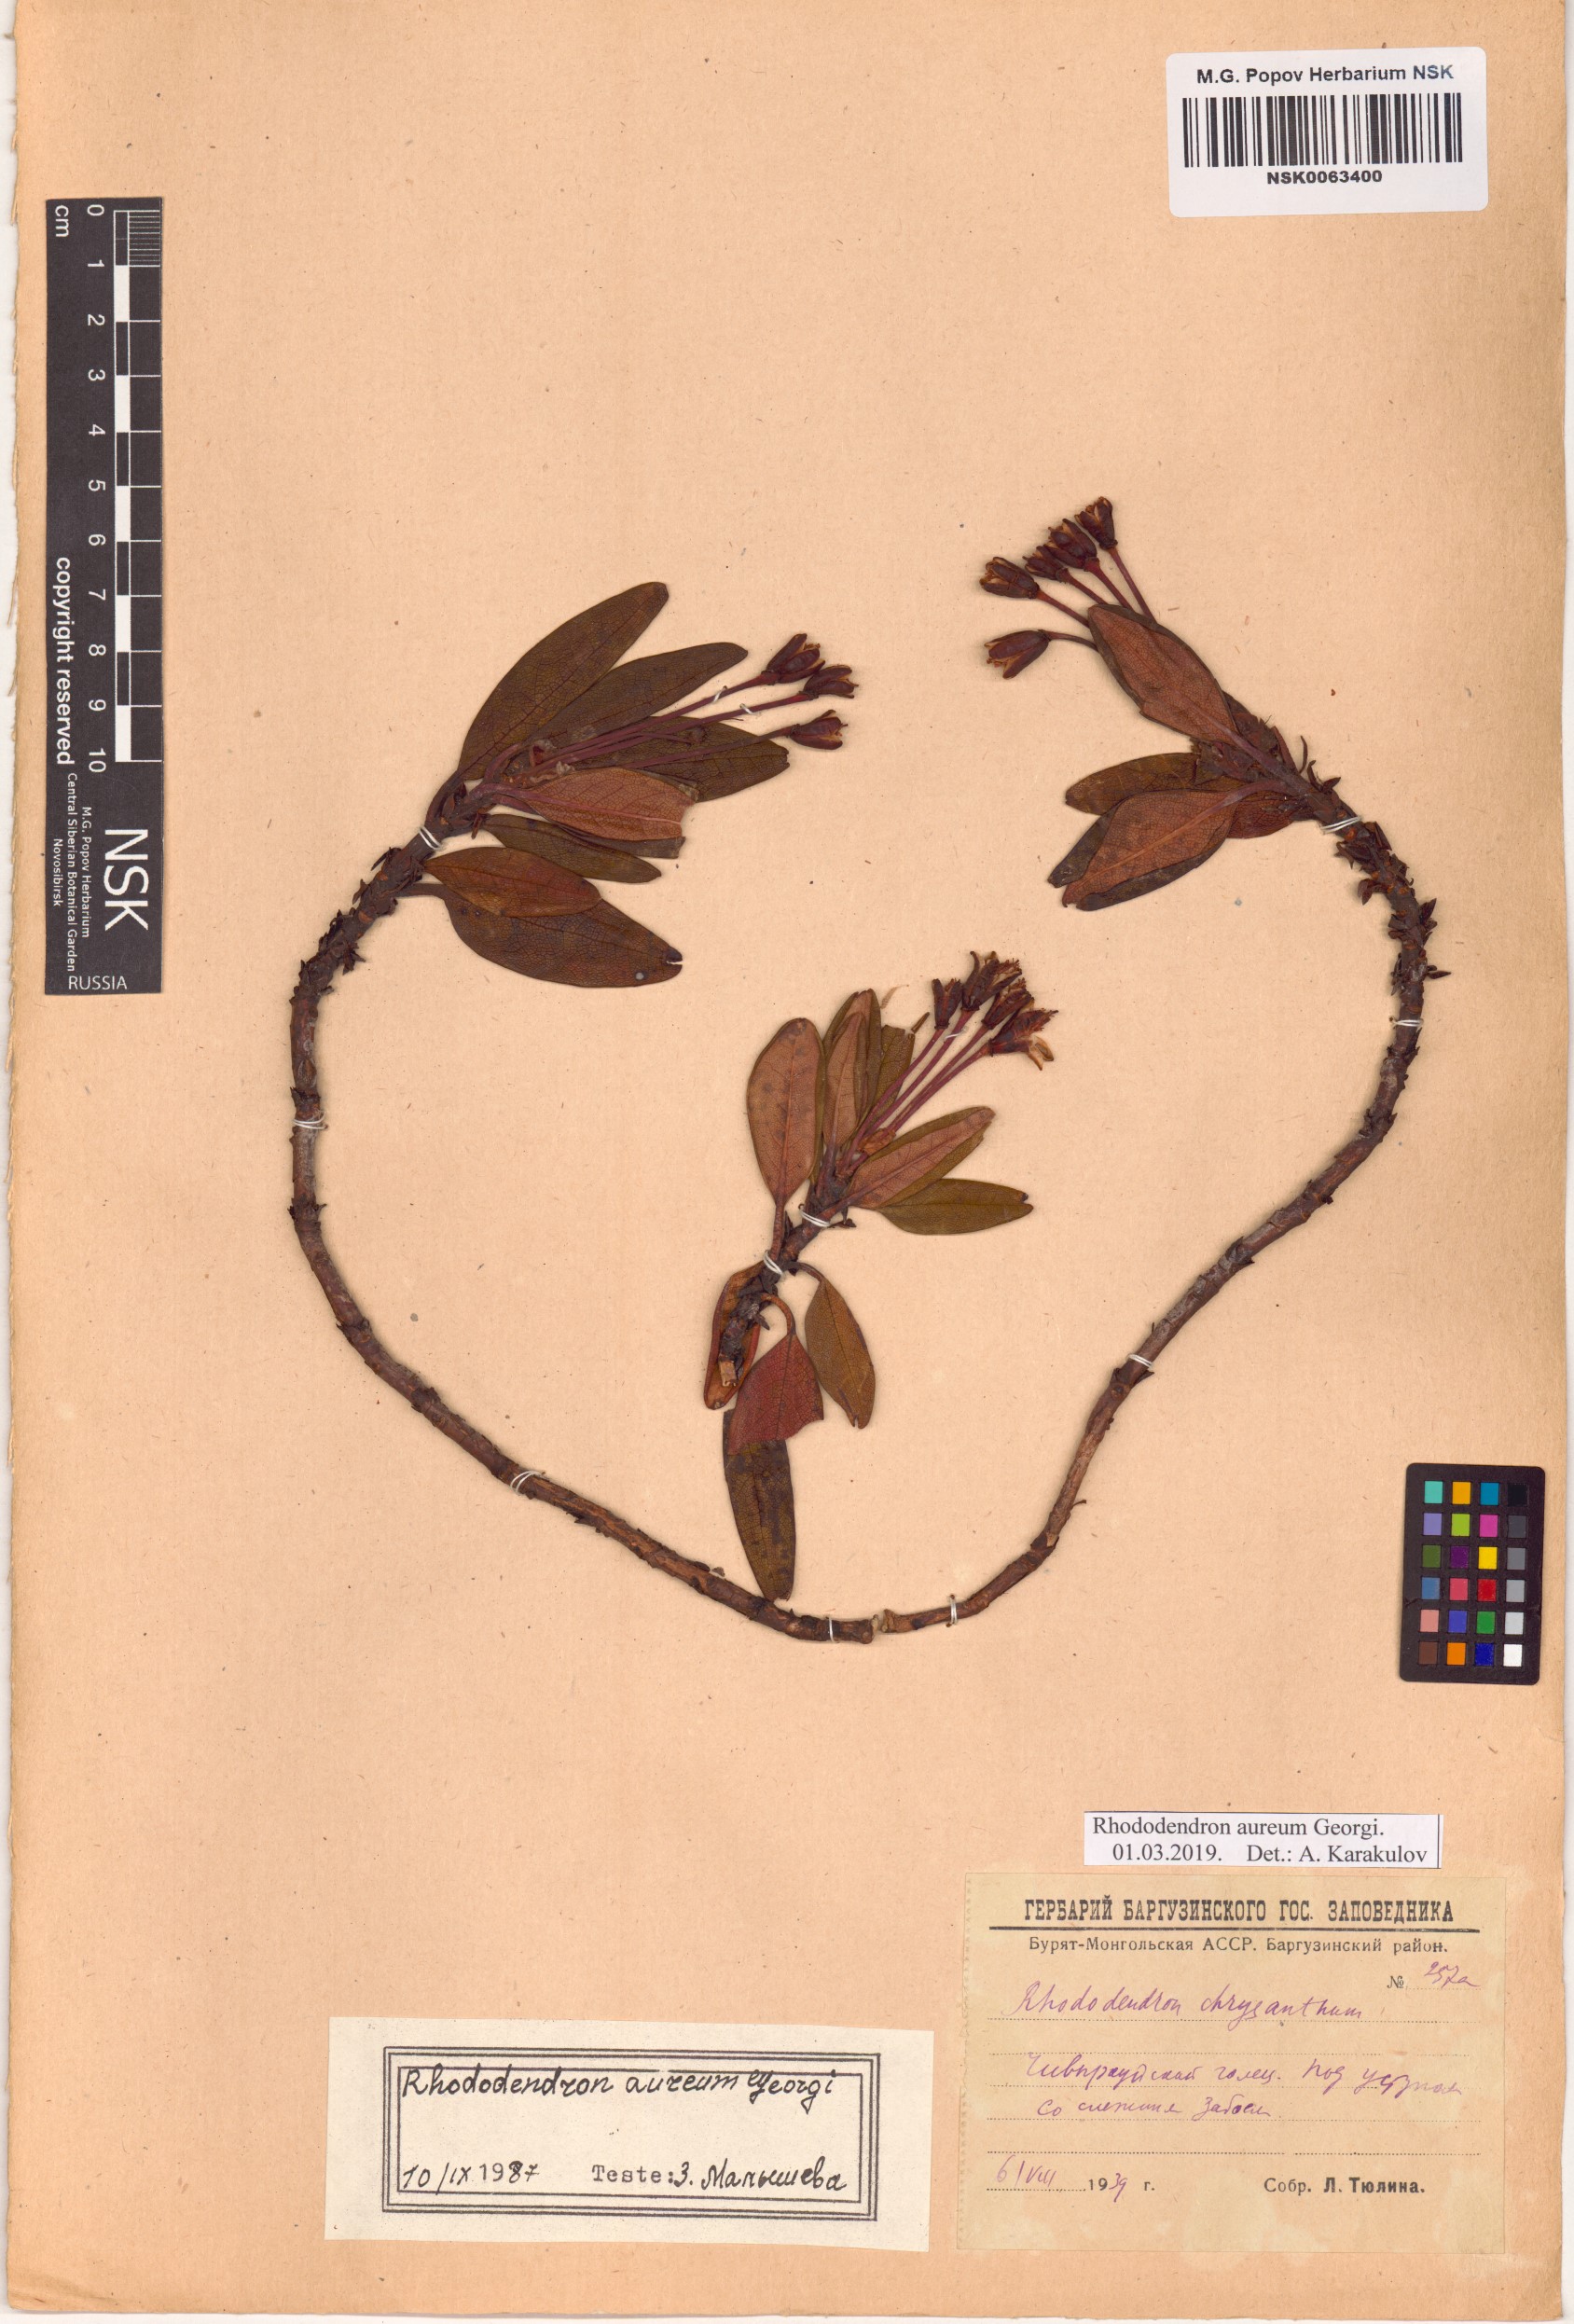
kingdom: Plantae
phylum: Tracheophyta
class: Magnoliopsida
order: Ericales
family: Ericaceae
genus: Rhododendron
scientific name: Rhododendron aureum
